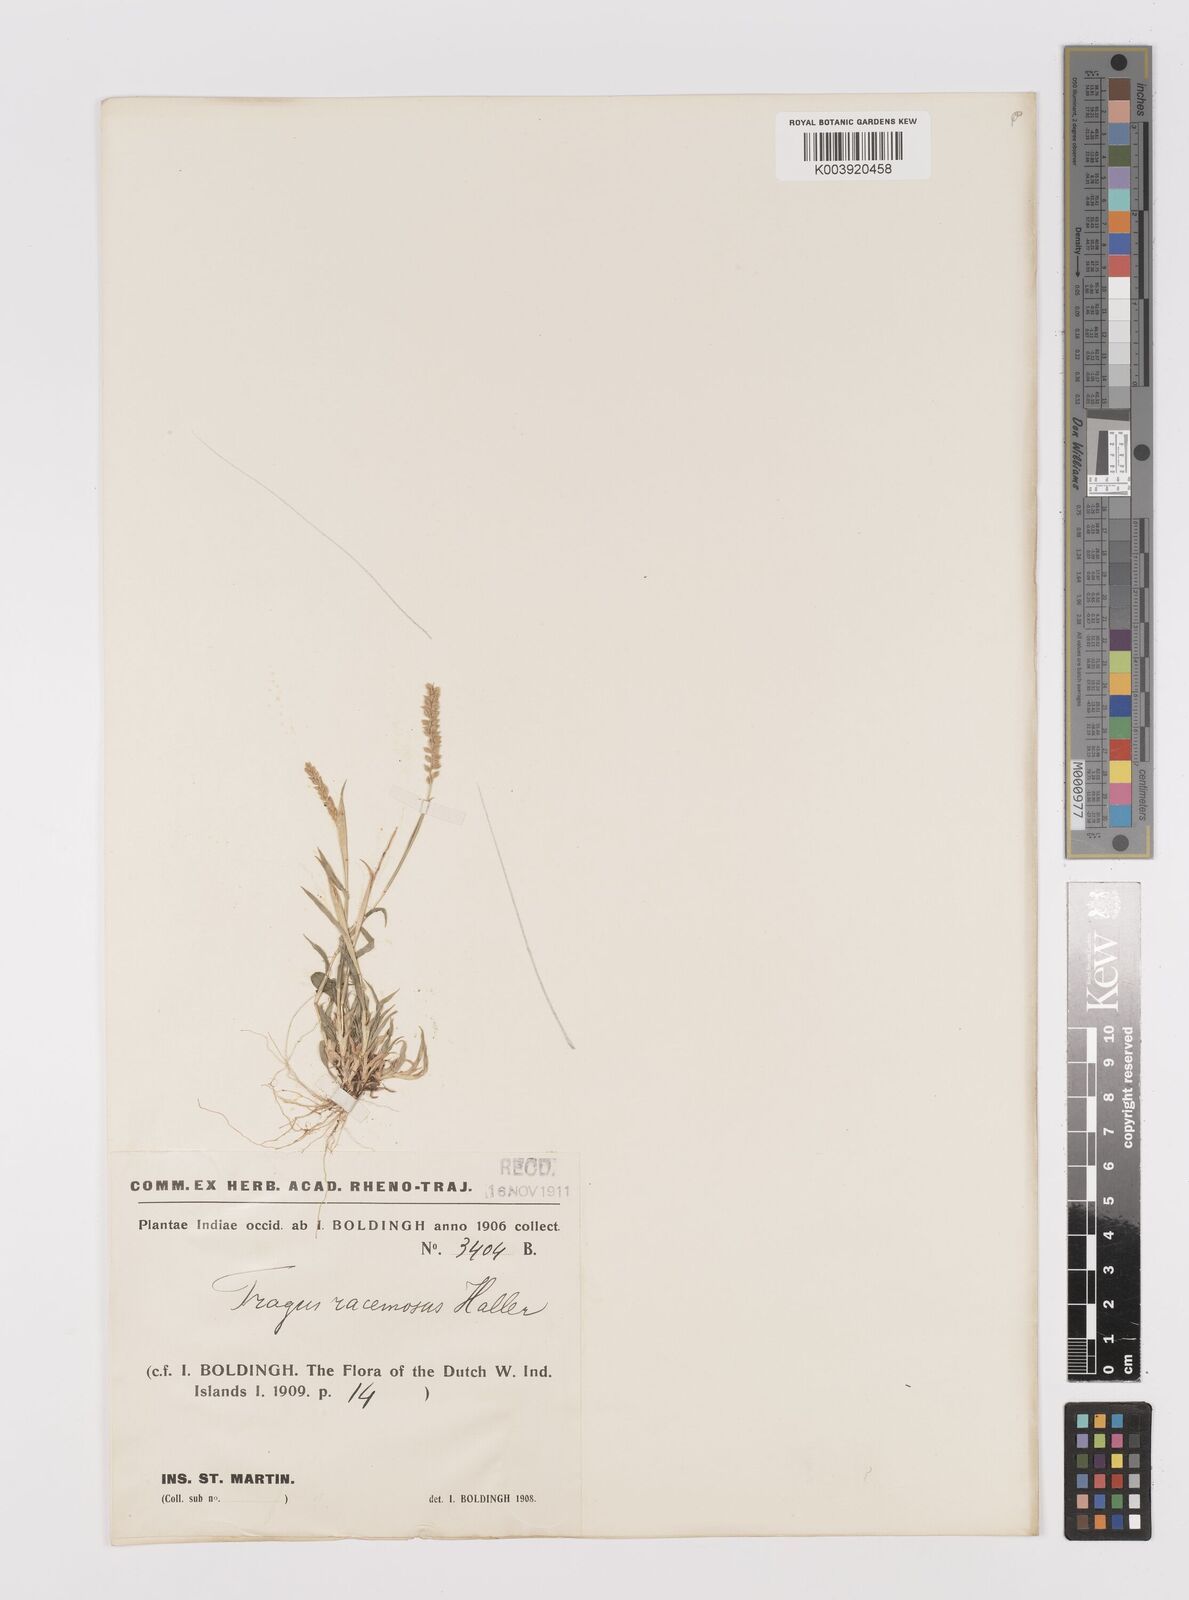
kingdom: Plantae
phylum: Tracheophyta
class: Liliopsida
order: Poales
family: Poaceae
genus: Tragus
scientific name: Tragus berteronianus
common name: African bur-grass
